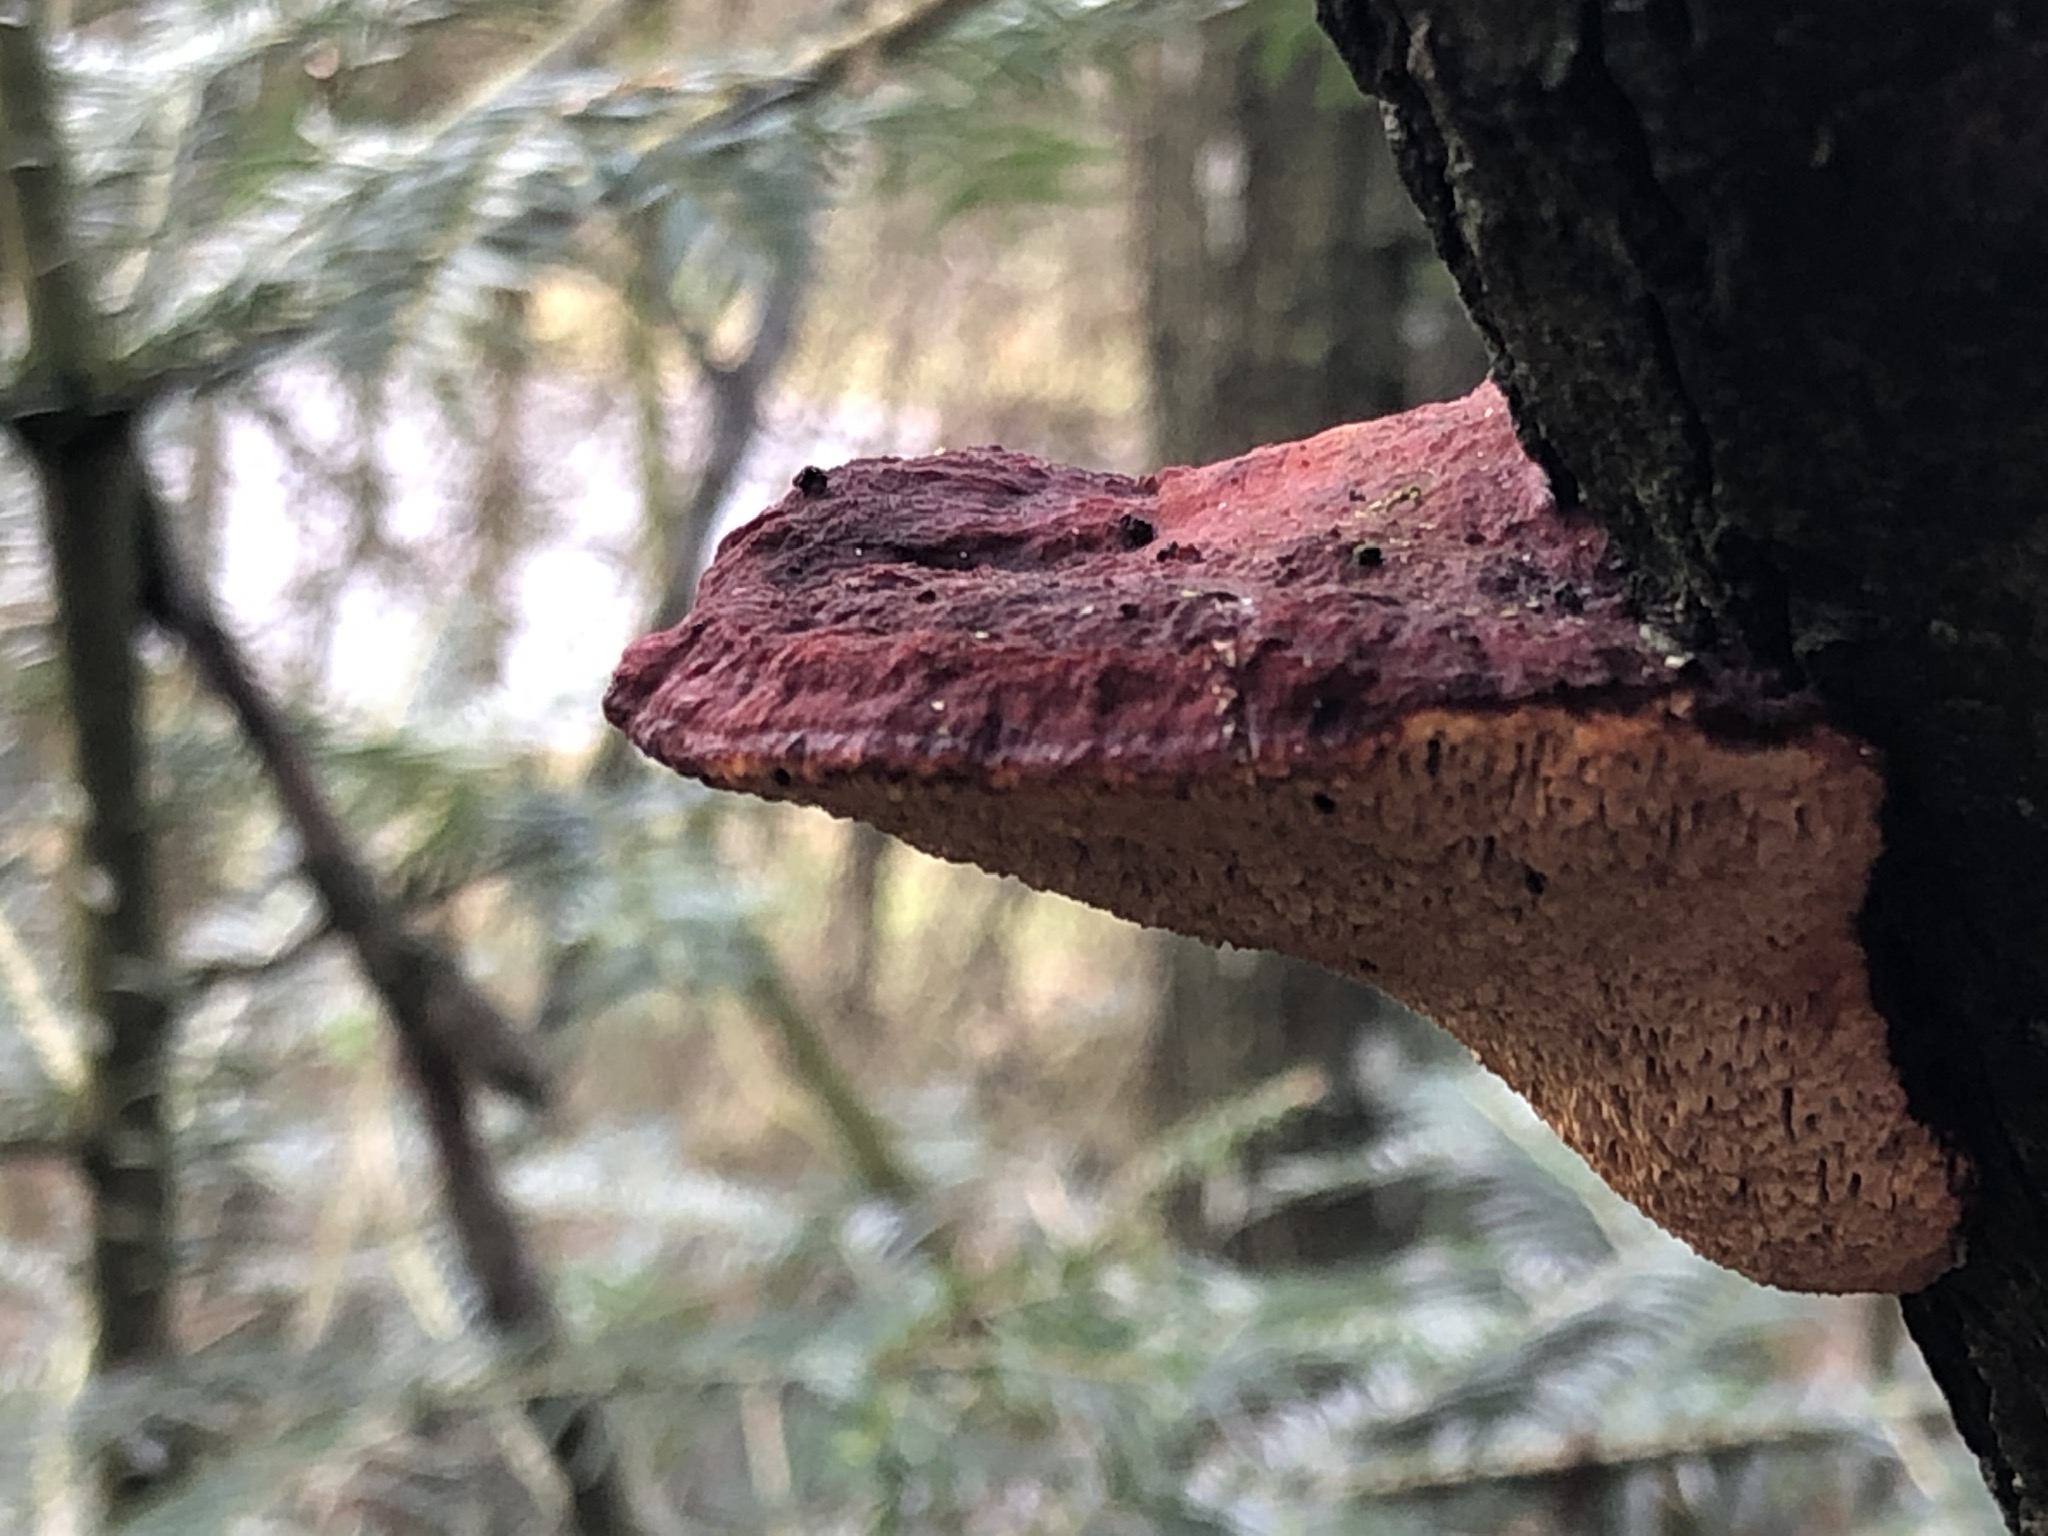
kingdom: Fungi
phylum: Basidiomycota
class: Agaricomycetes
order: Polyporales
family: Polyporaceae
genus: Daedaleopsis
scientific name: Daedaleopsis confragosa
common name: rødmende læderporesvamp
